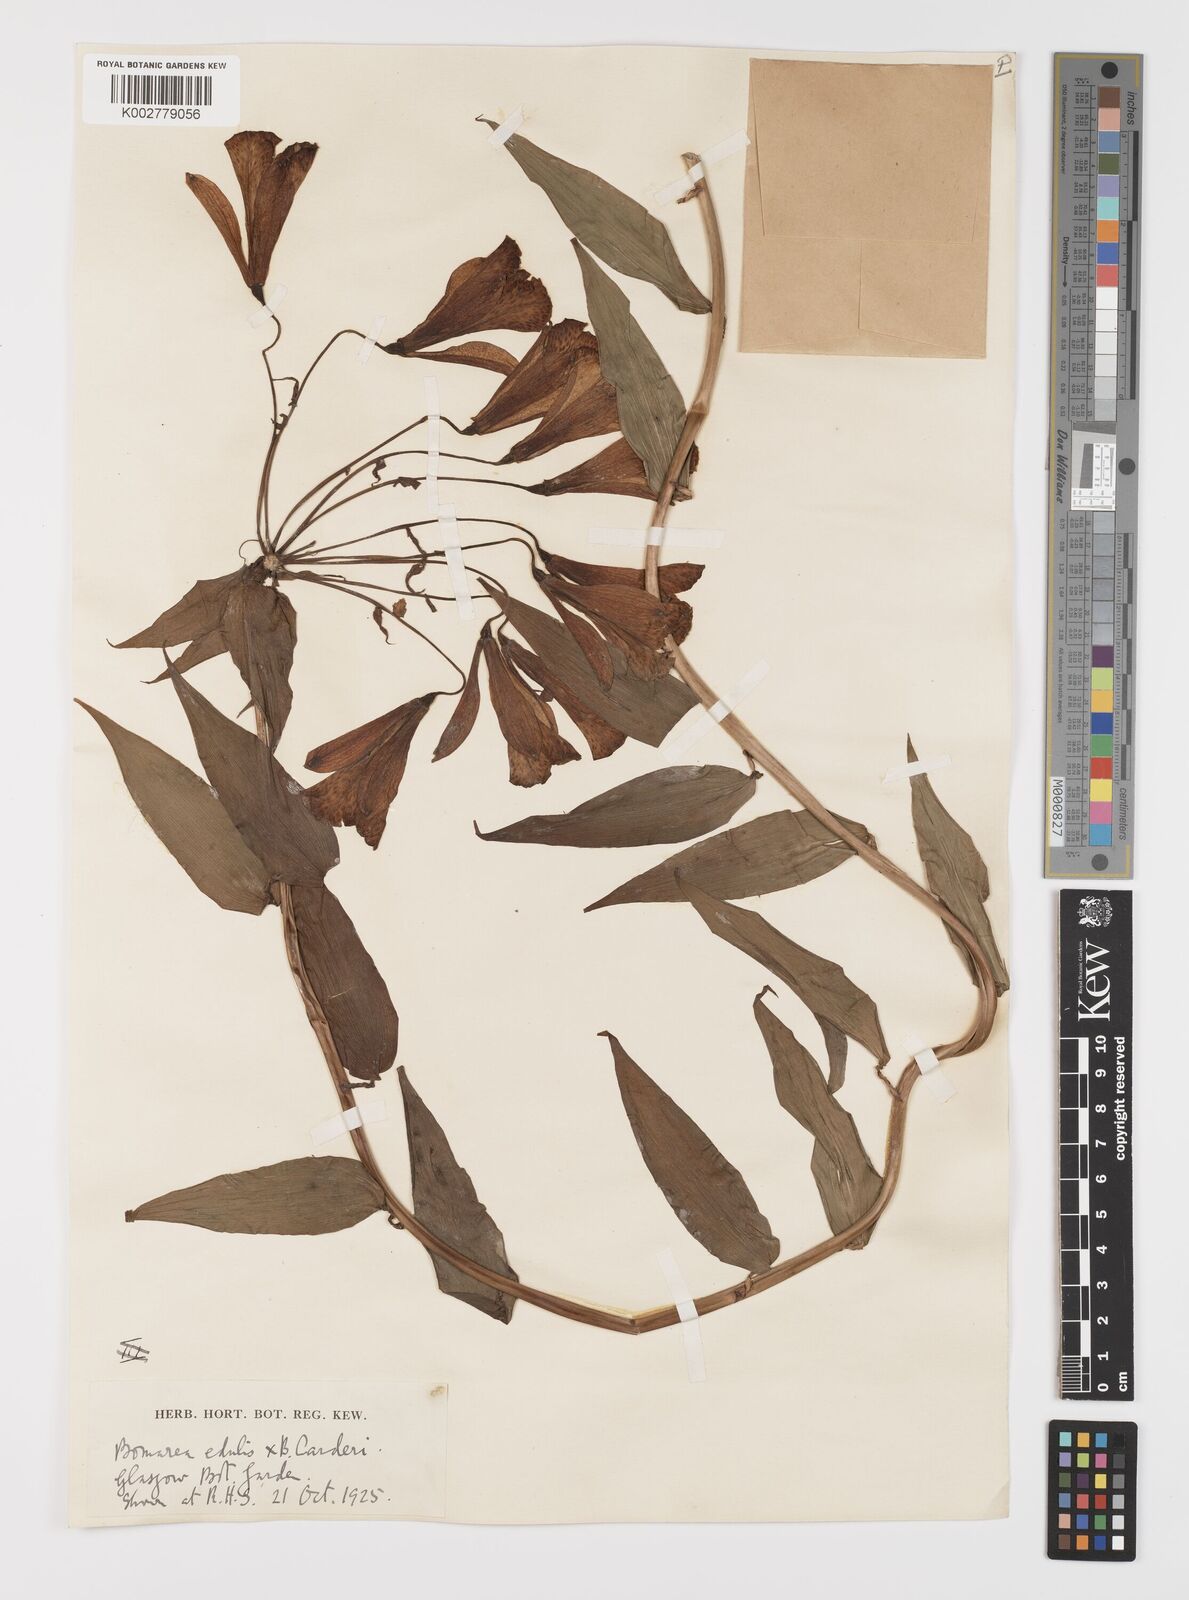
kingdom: Plantae
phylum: Tracheophyta
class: Liliopsida
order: Liliales
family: Alstroemeriaceae
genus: Bomarea
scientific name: Bomarea
